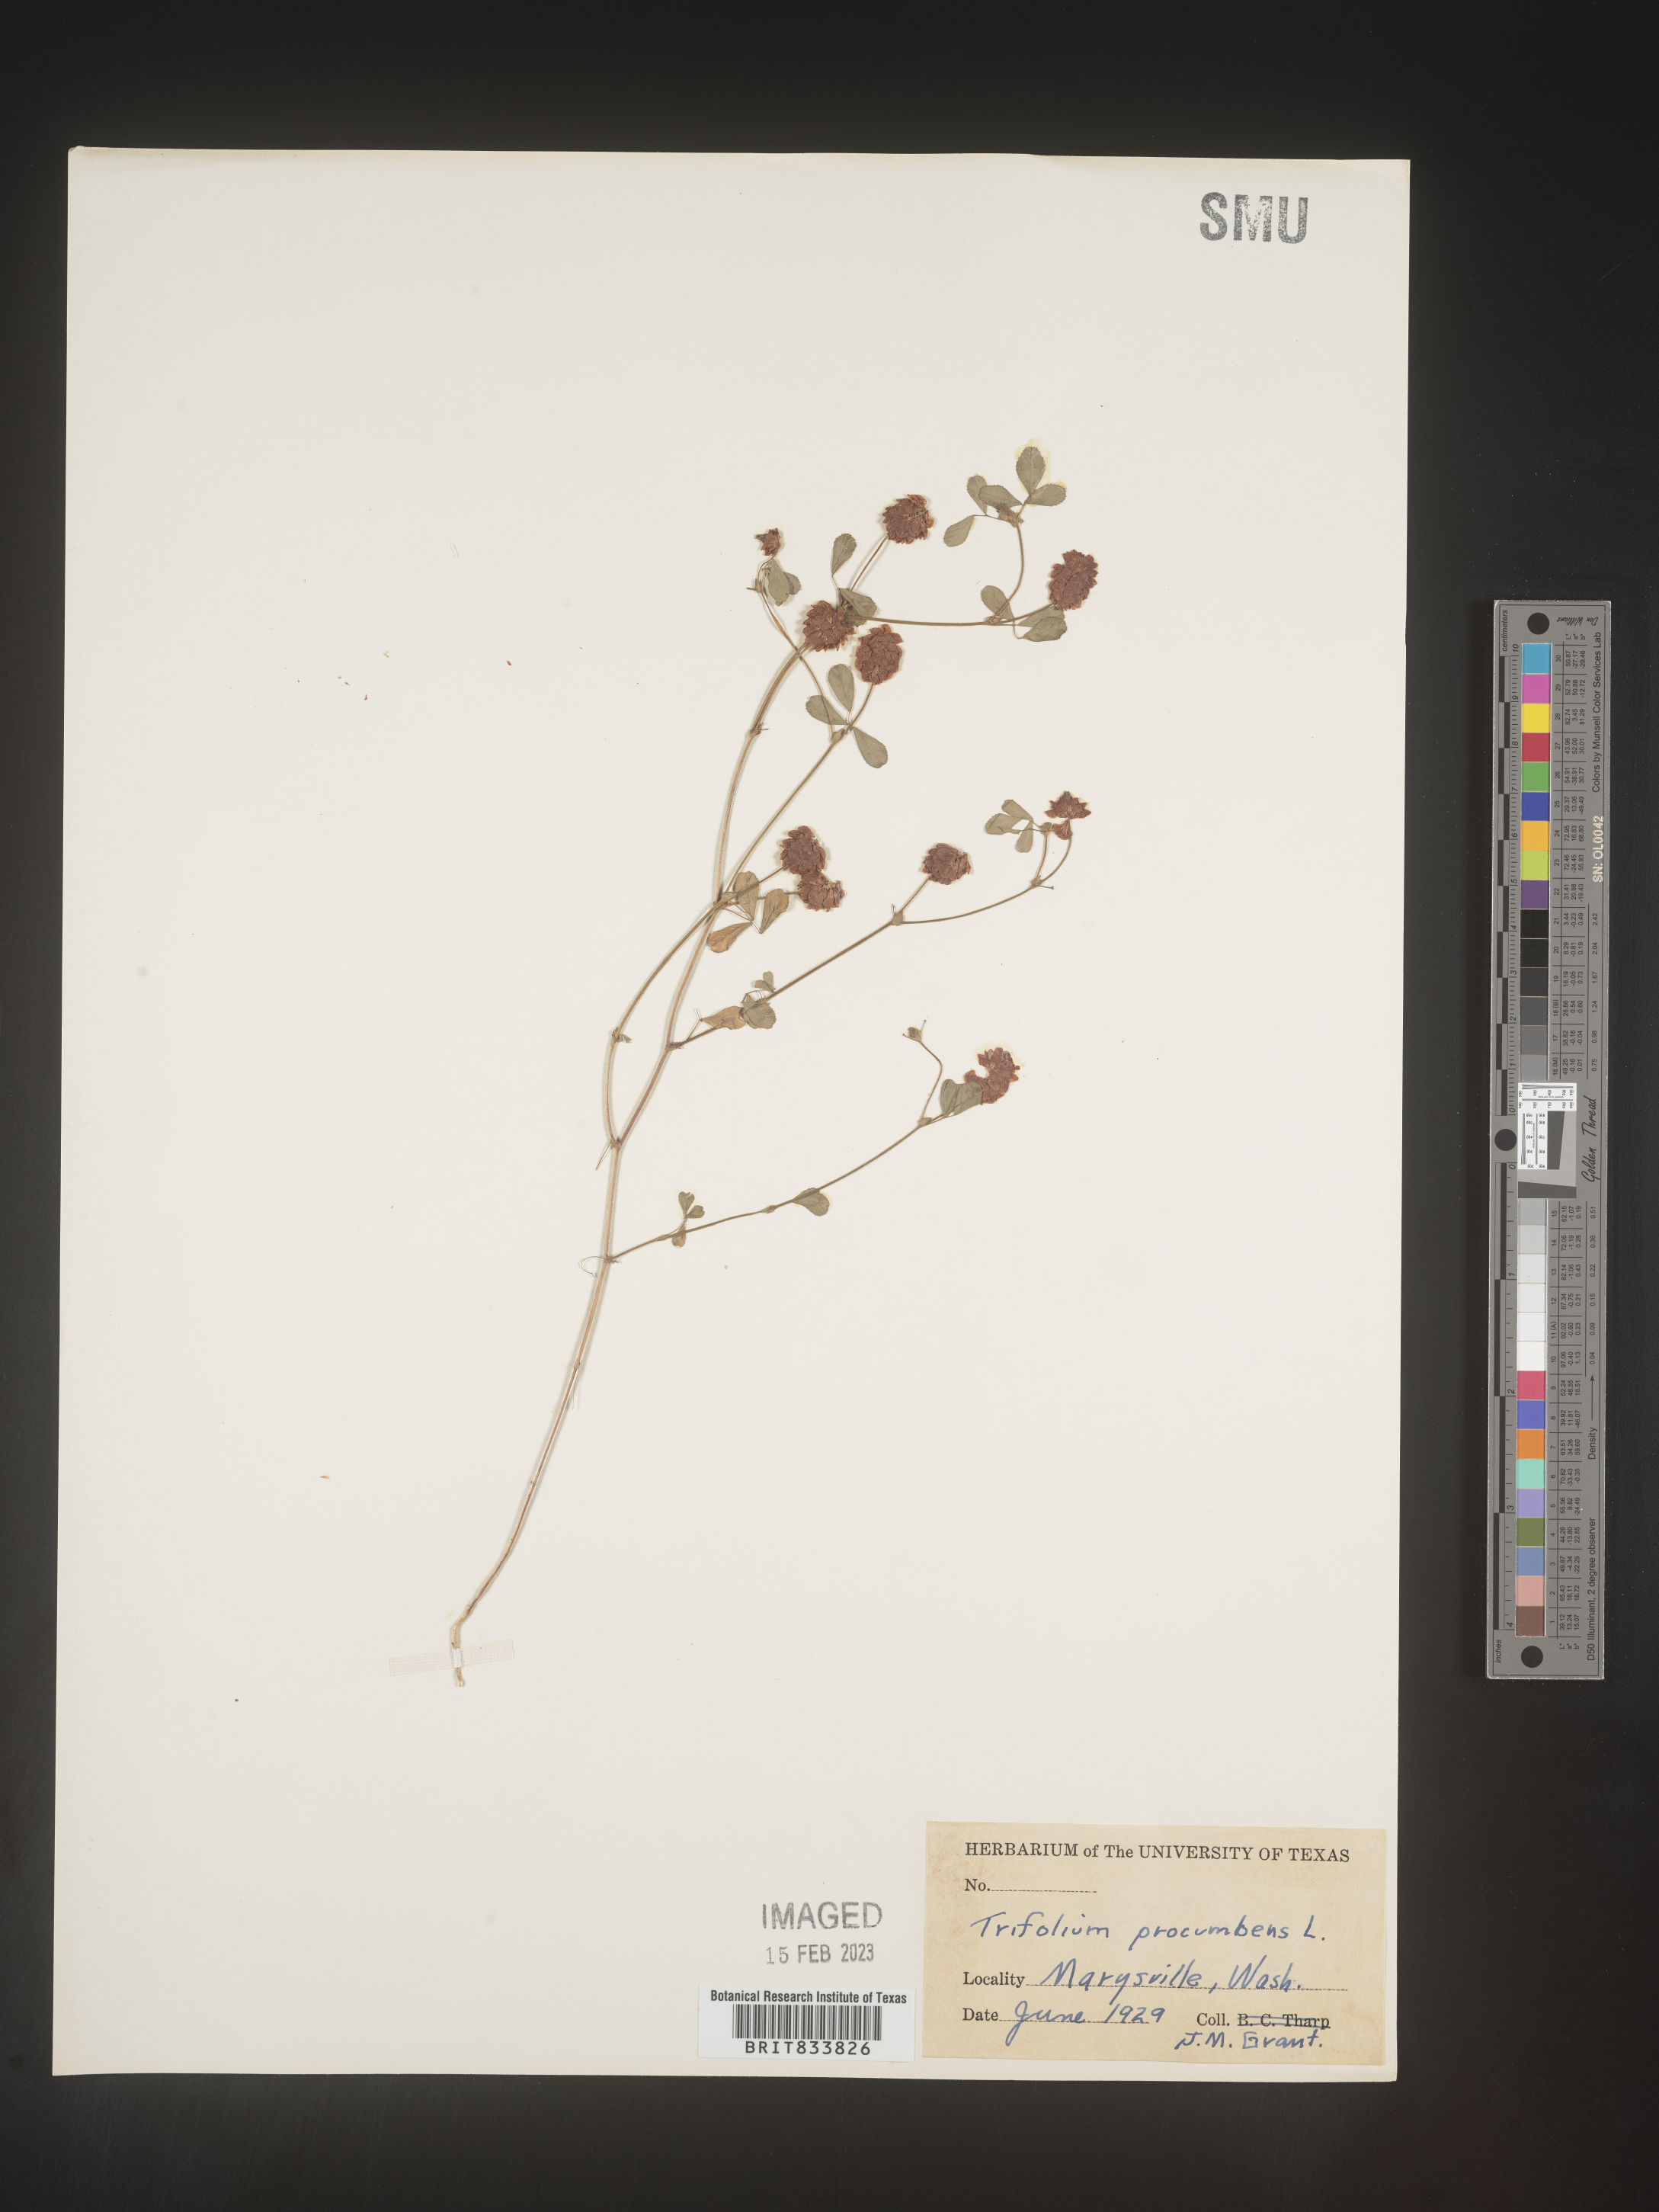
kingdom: Plantae
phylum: Tracheophyta
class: Magnoliopsida
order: Fabales
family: Fabaceae
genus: Trifolium
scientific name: Trifolium campestre
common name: Field clover
